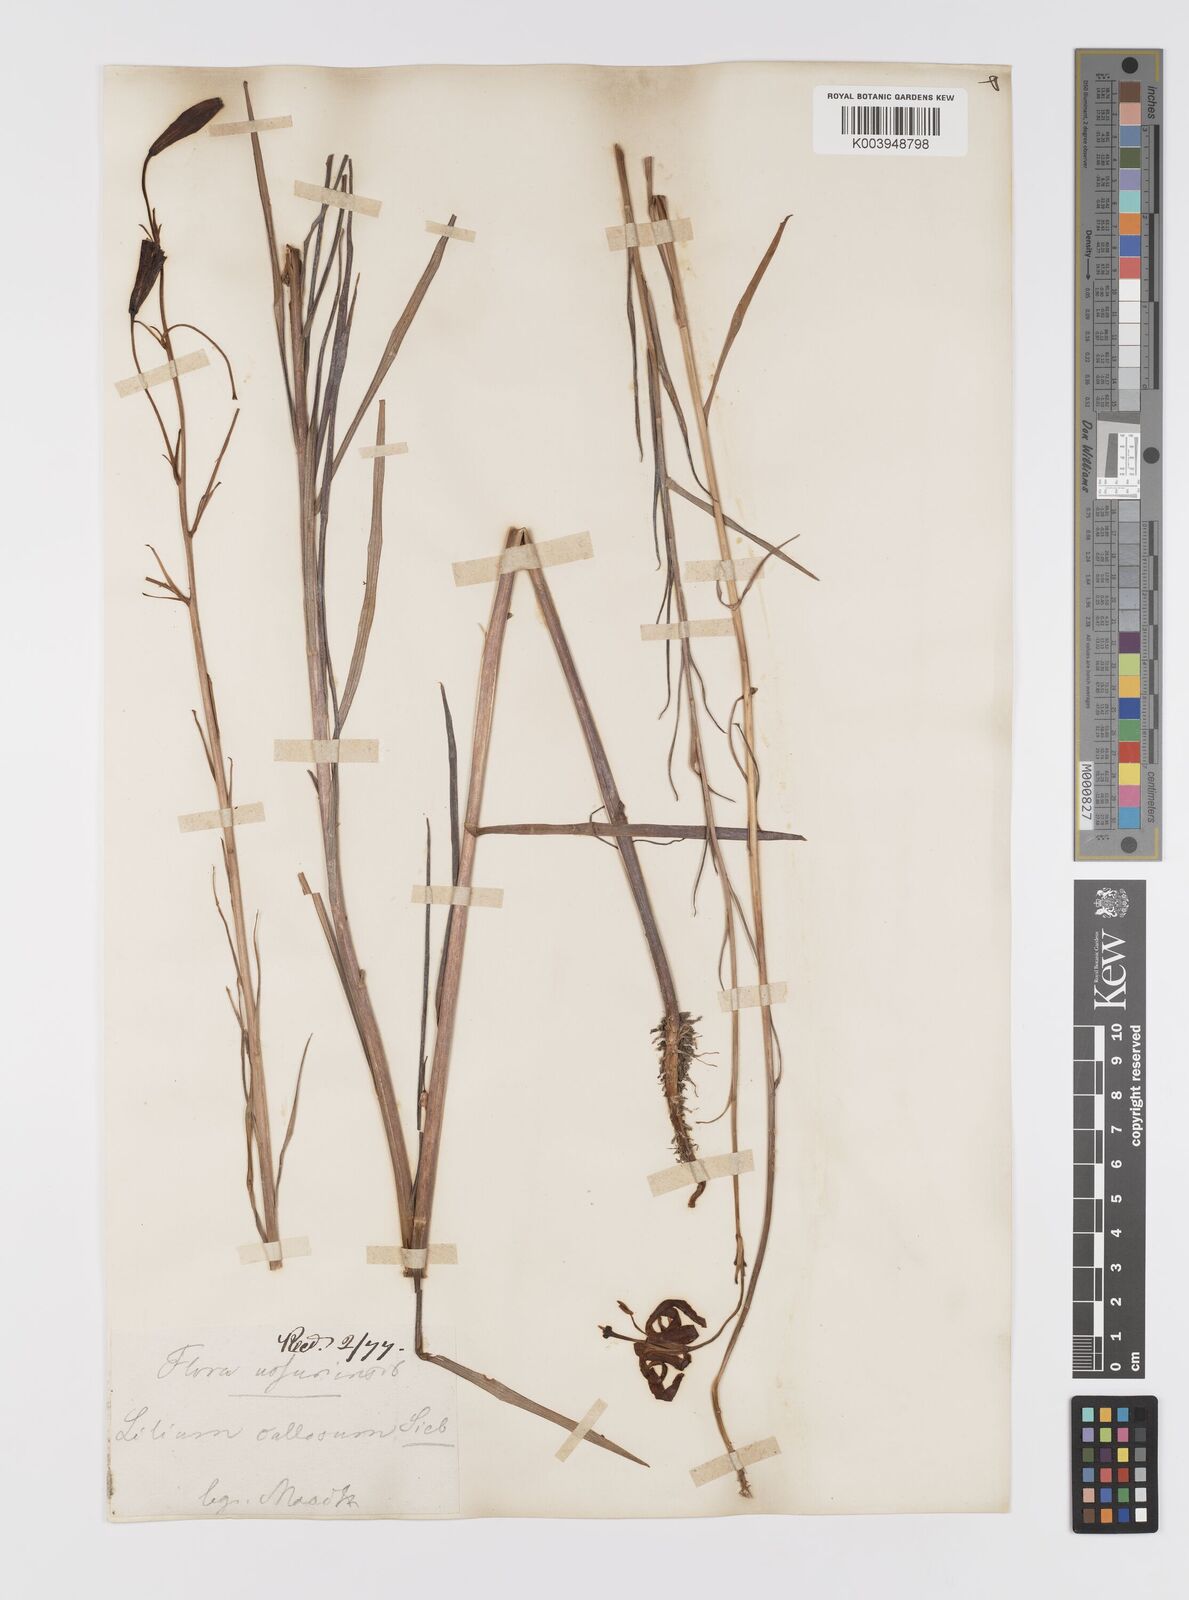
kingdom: Plantae
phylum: Tracheophyta
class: Liliopsida
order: Liliales
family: Liliaceae
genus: Lilium
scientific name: Lilium callosum
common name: Slim-stem lily
